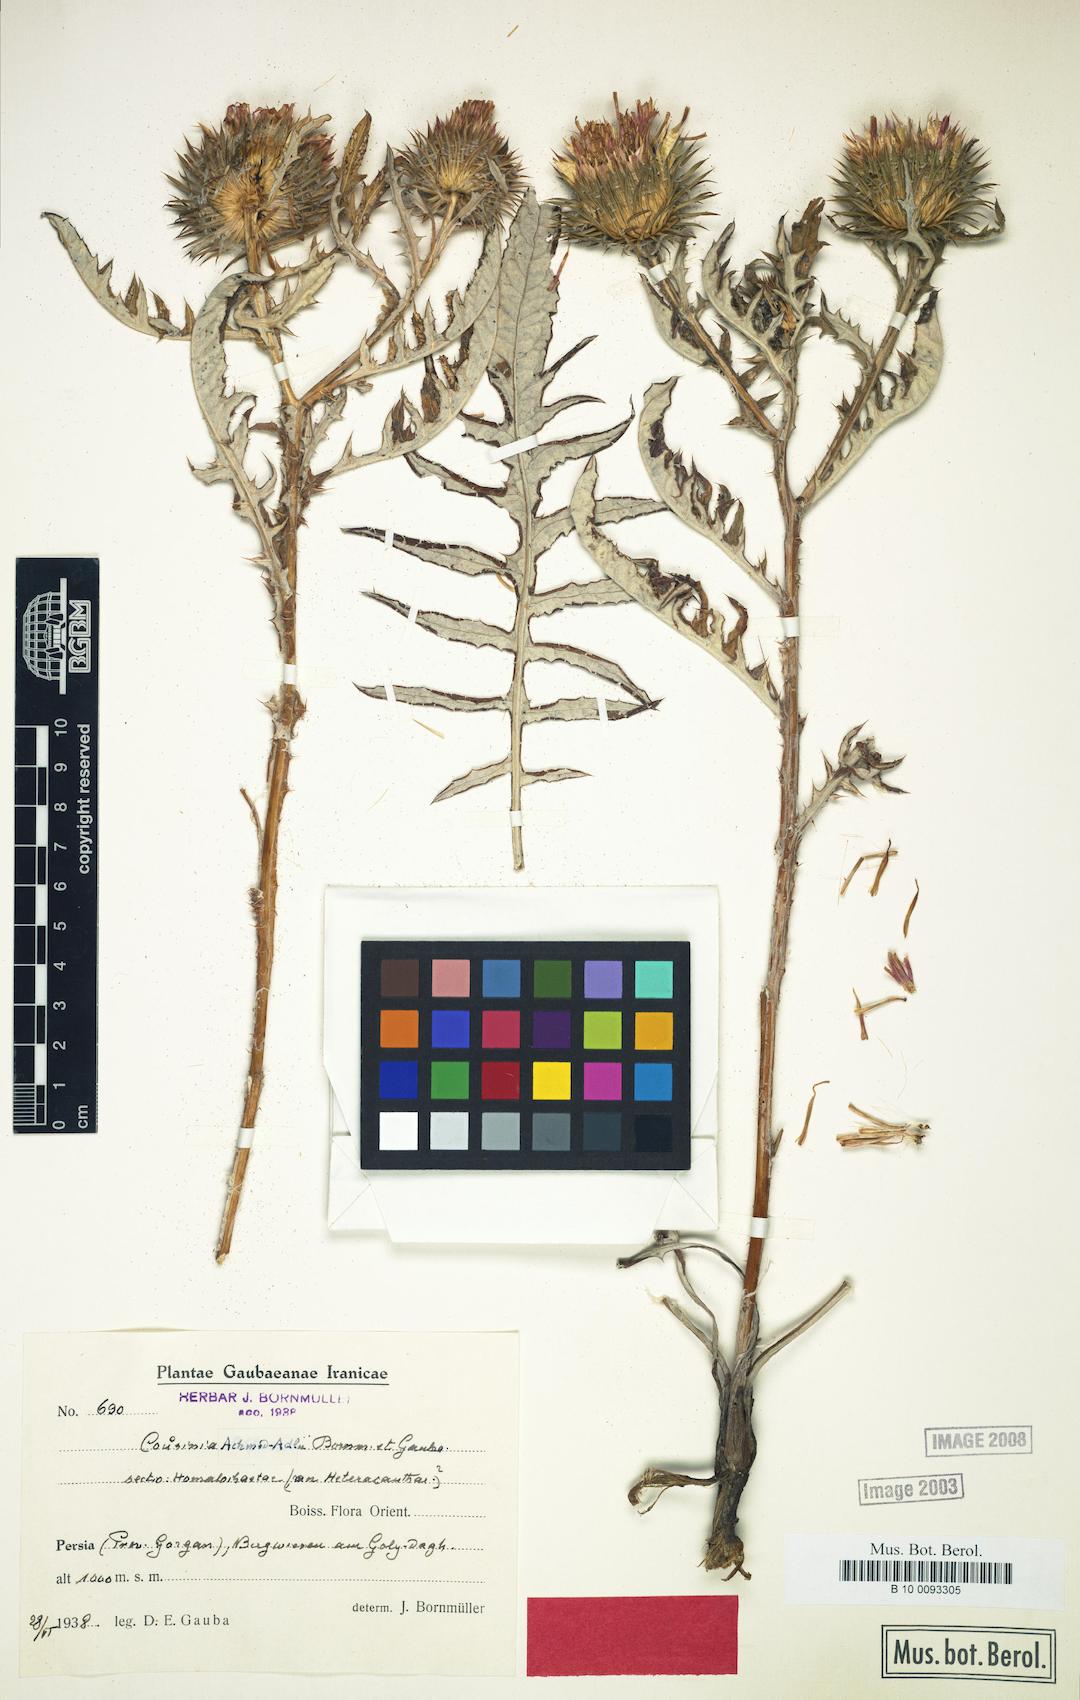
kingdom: Plantae
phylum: Tracheophyta
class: Magnoliopsida
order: Asterales
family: Asteraceae
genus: Cousinia
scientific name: Cousinia rechingerae
